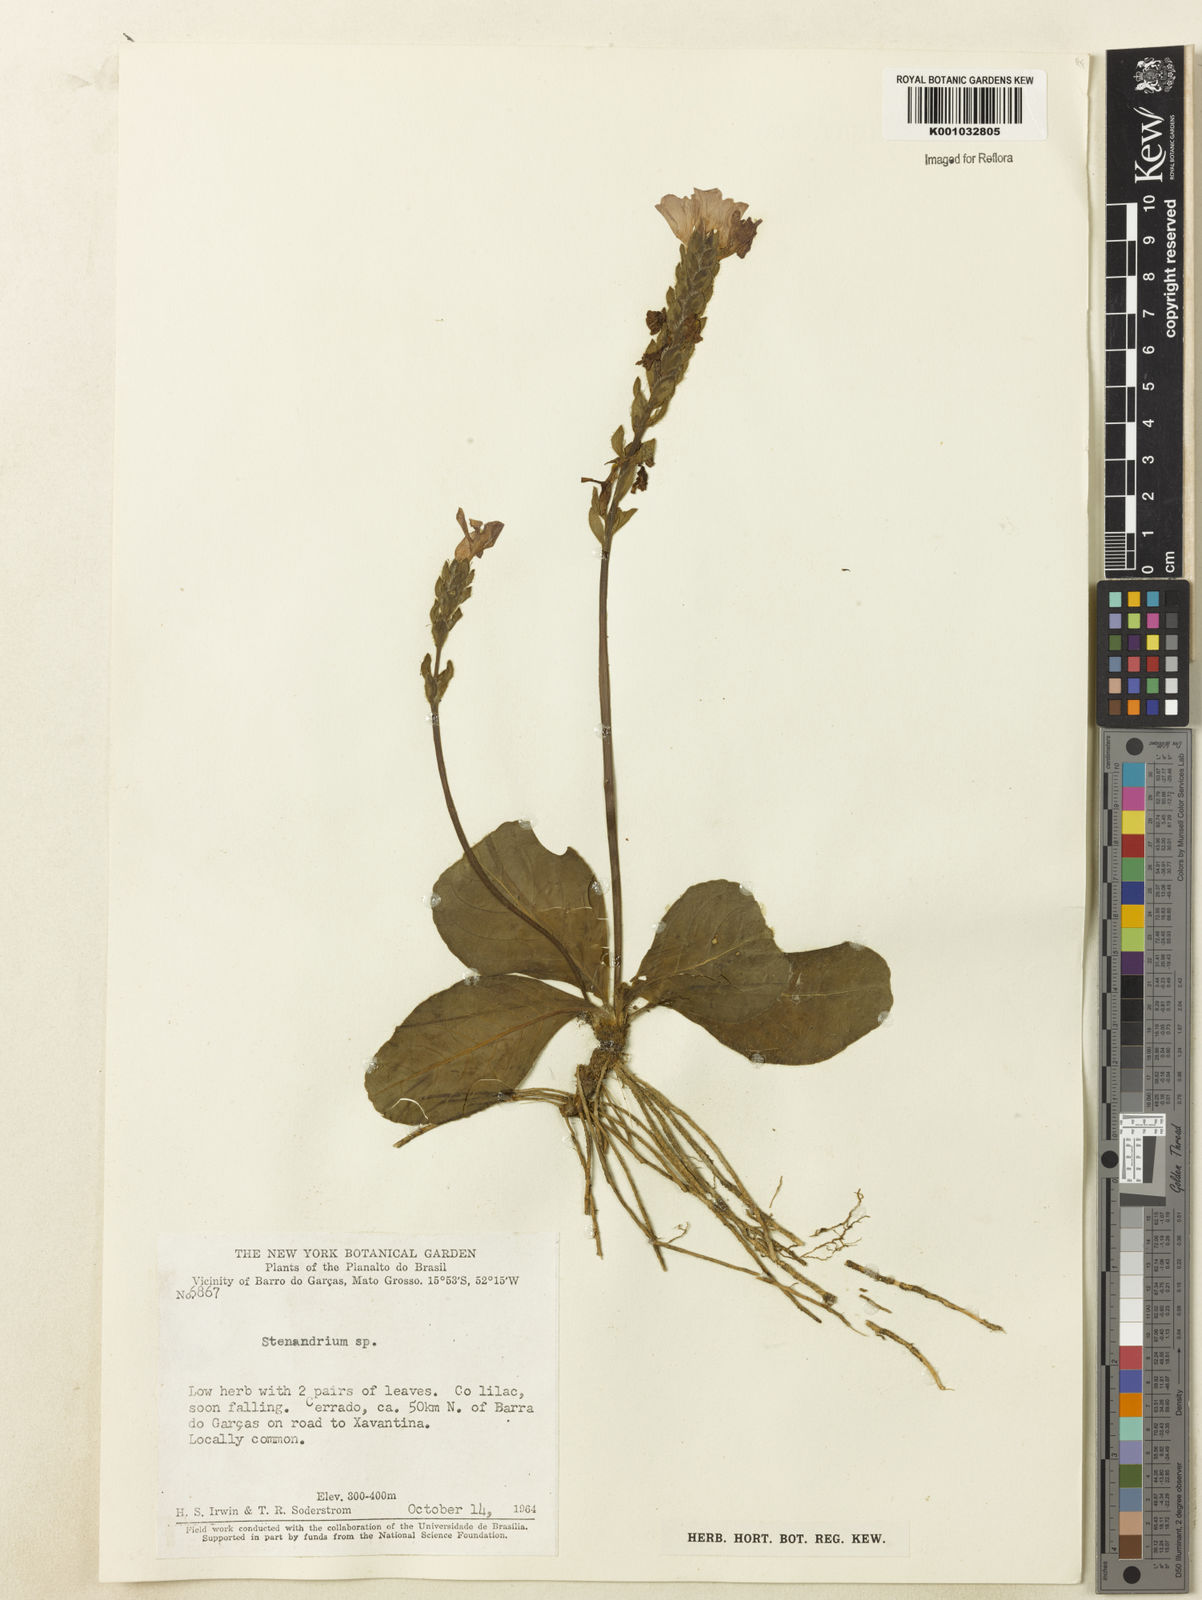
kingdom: Plantae
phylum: Tracheophyta
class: Magnoliopsida
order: Lamiales
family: Acanthaceae
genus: Stenandrium
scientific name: Stenandrium
